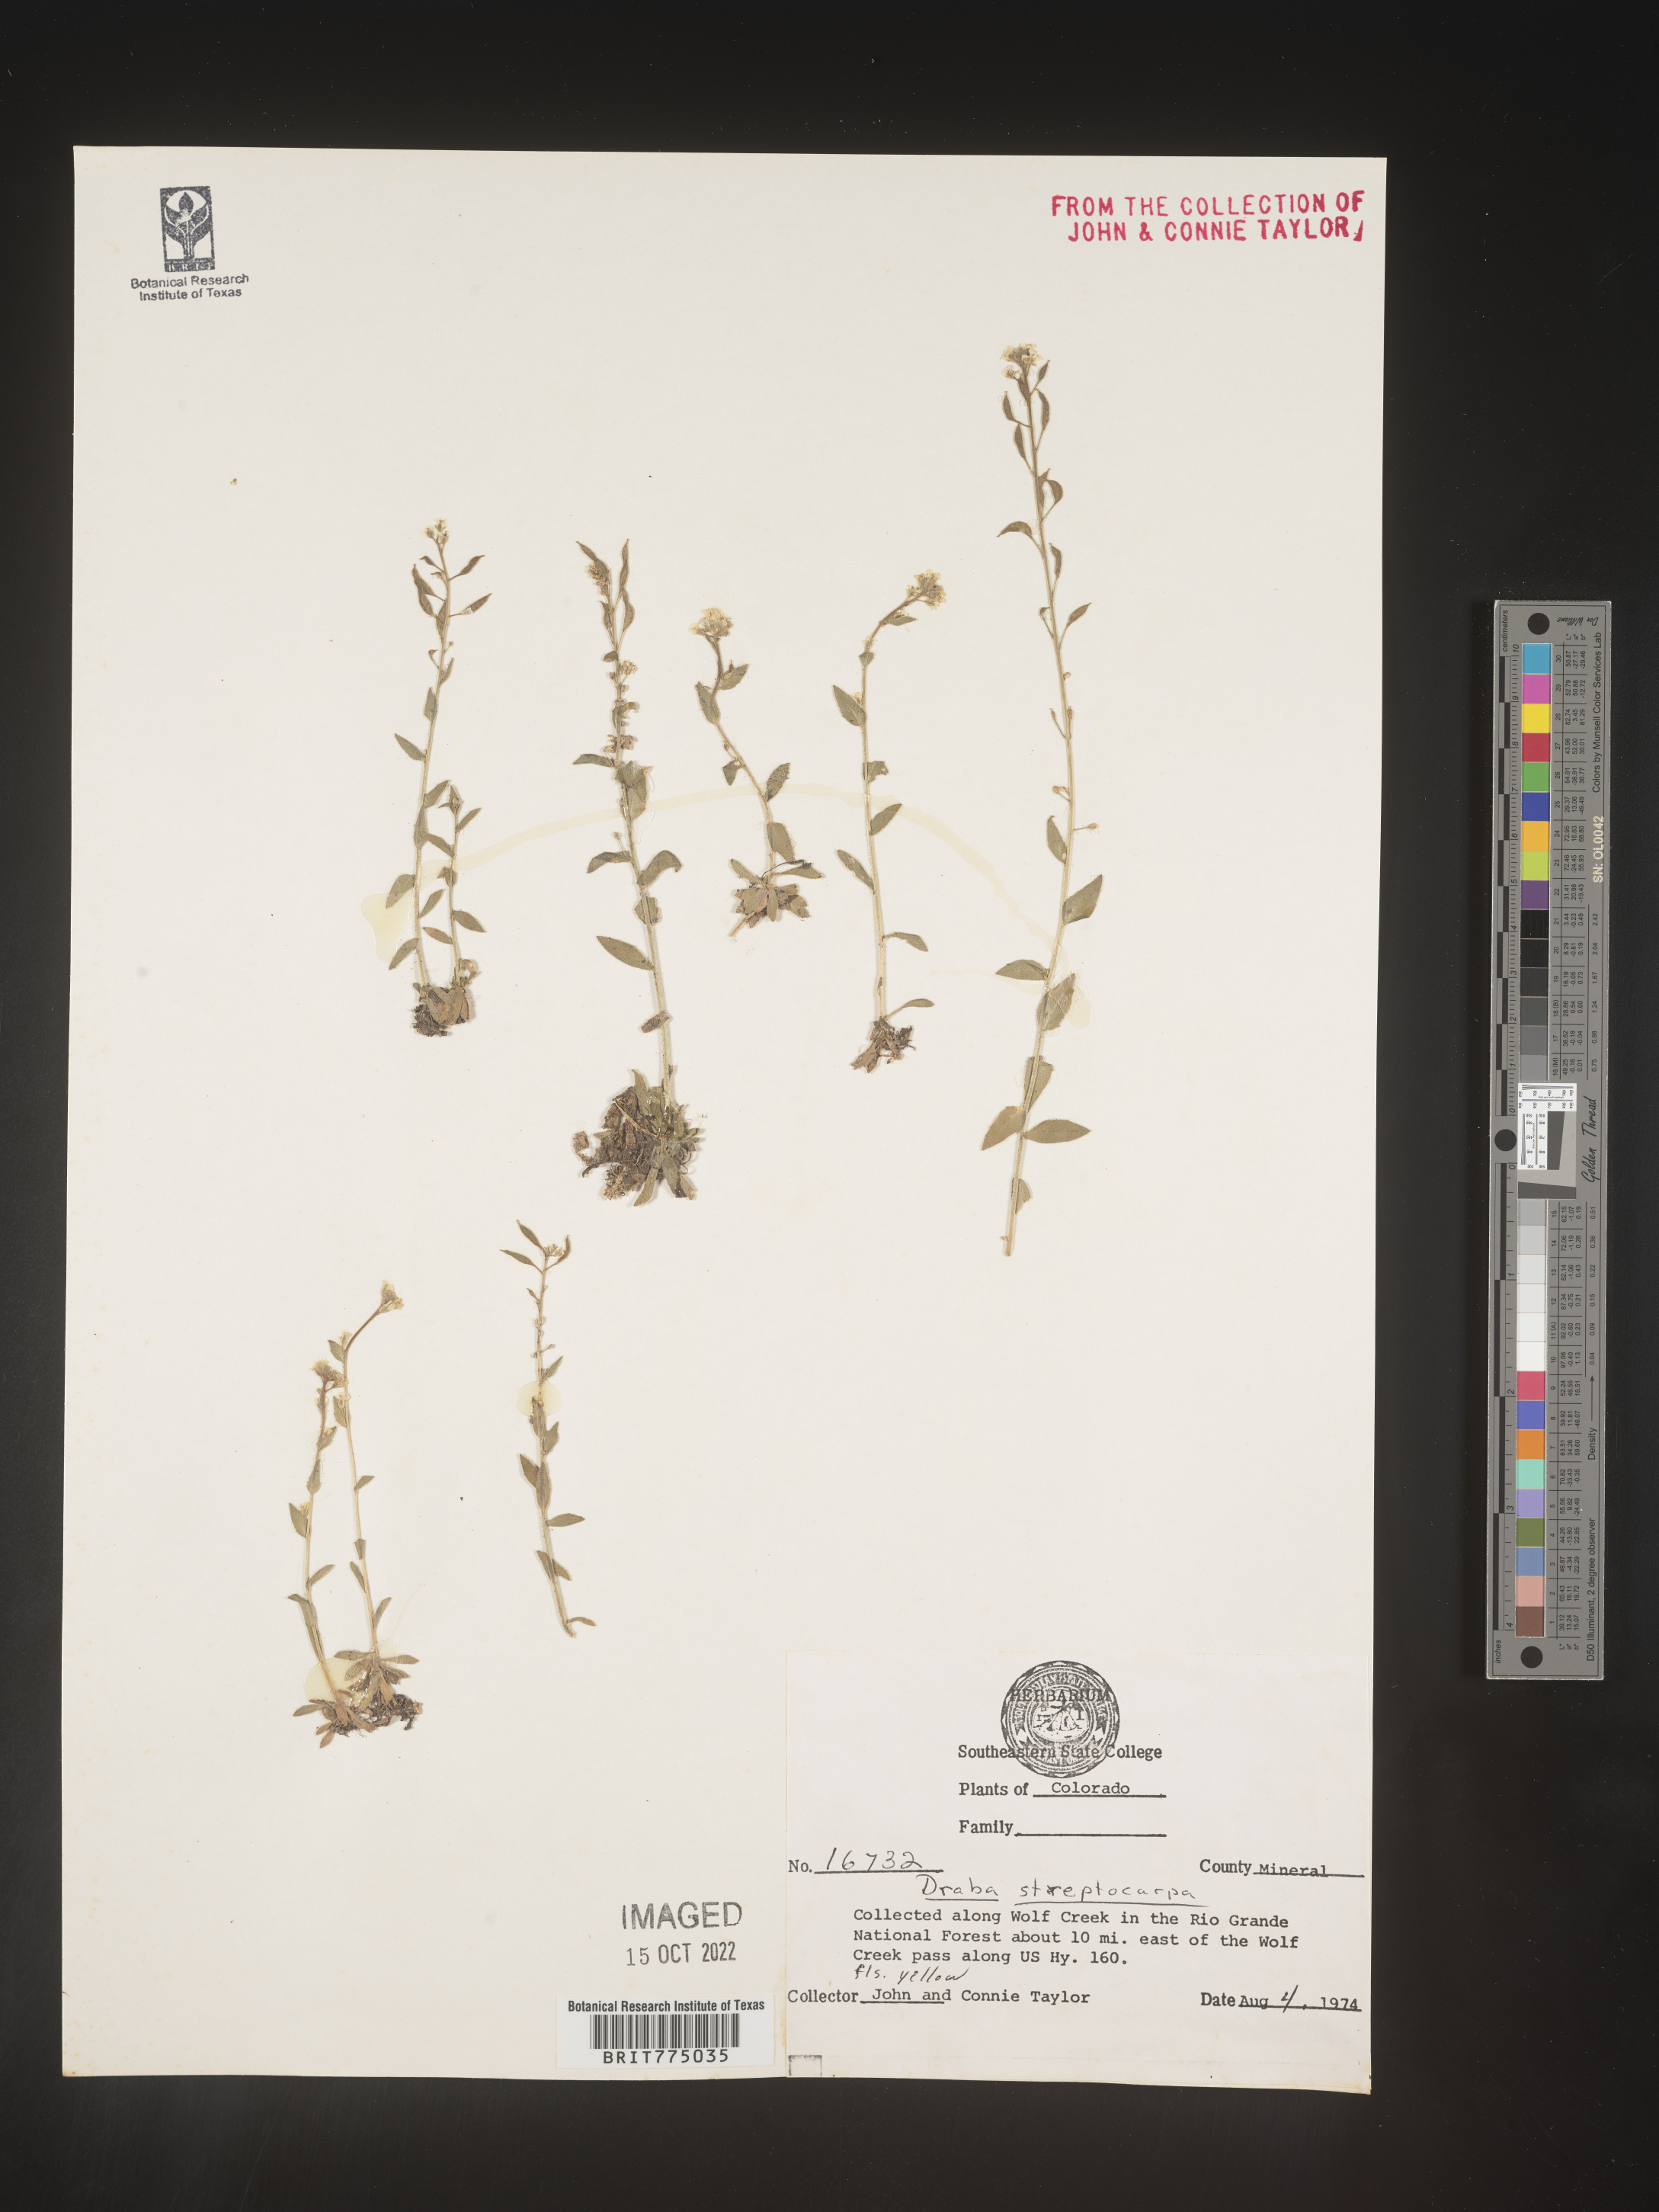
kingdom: Plantae
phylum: Tracheophyta
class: Magnoliopsida
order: Brassicales
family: Brassicaceae
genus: Draba
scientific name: Draba
